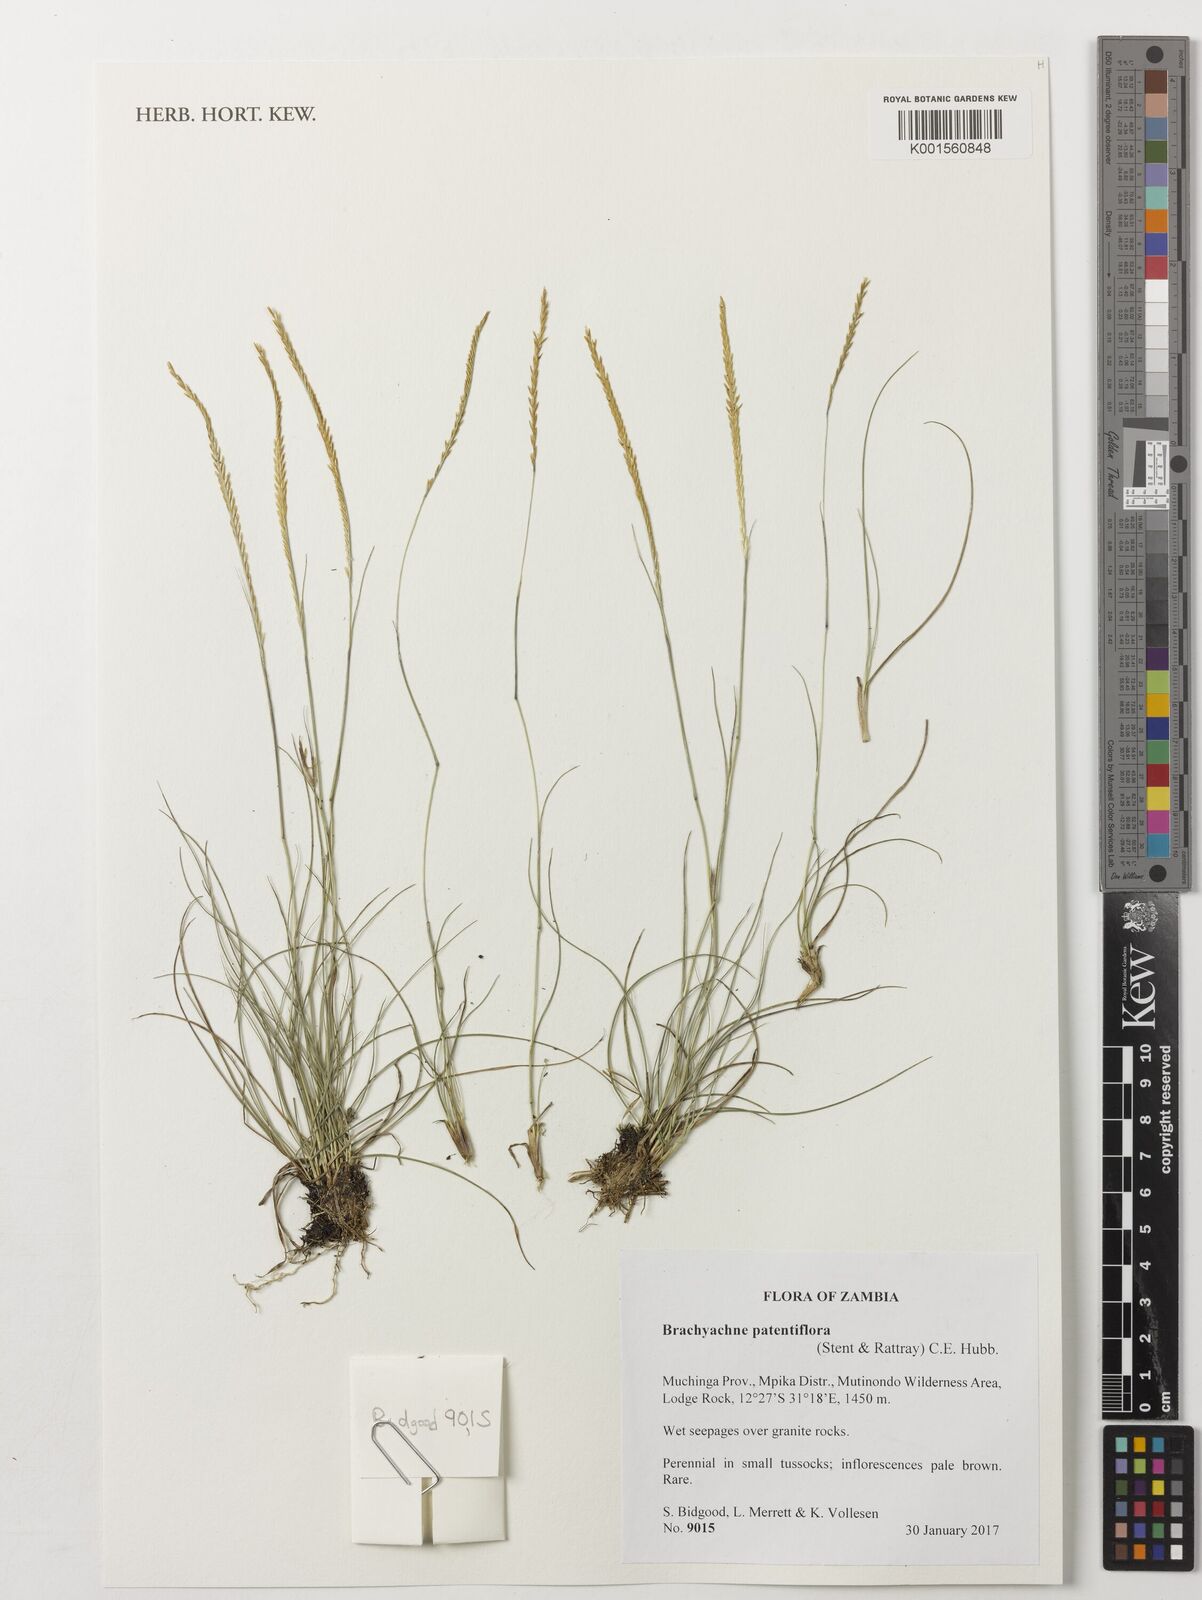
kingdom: Plantae
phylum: Tracheophyta
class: Liliopsida
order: Poales
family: Poaceae
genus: Micrachne
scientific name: Micrachne patentiflora
